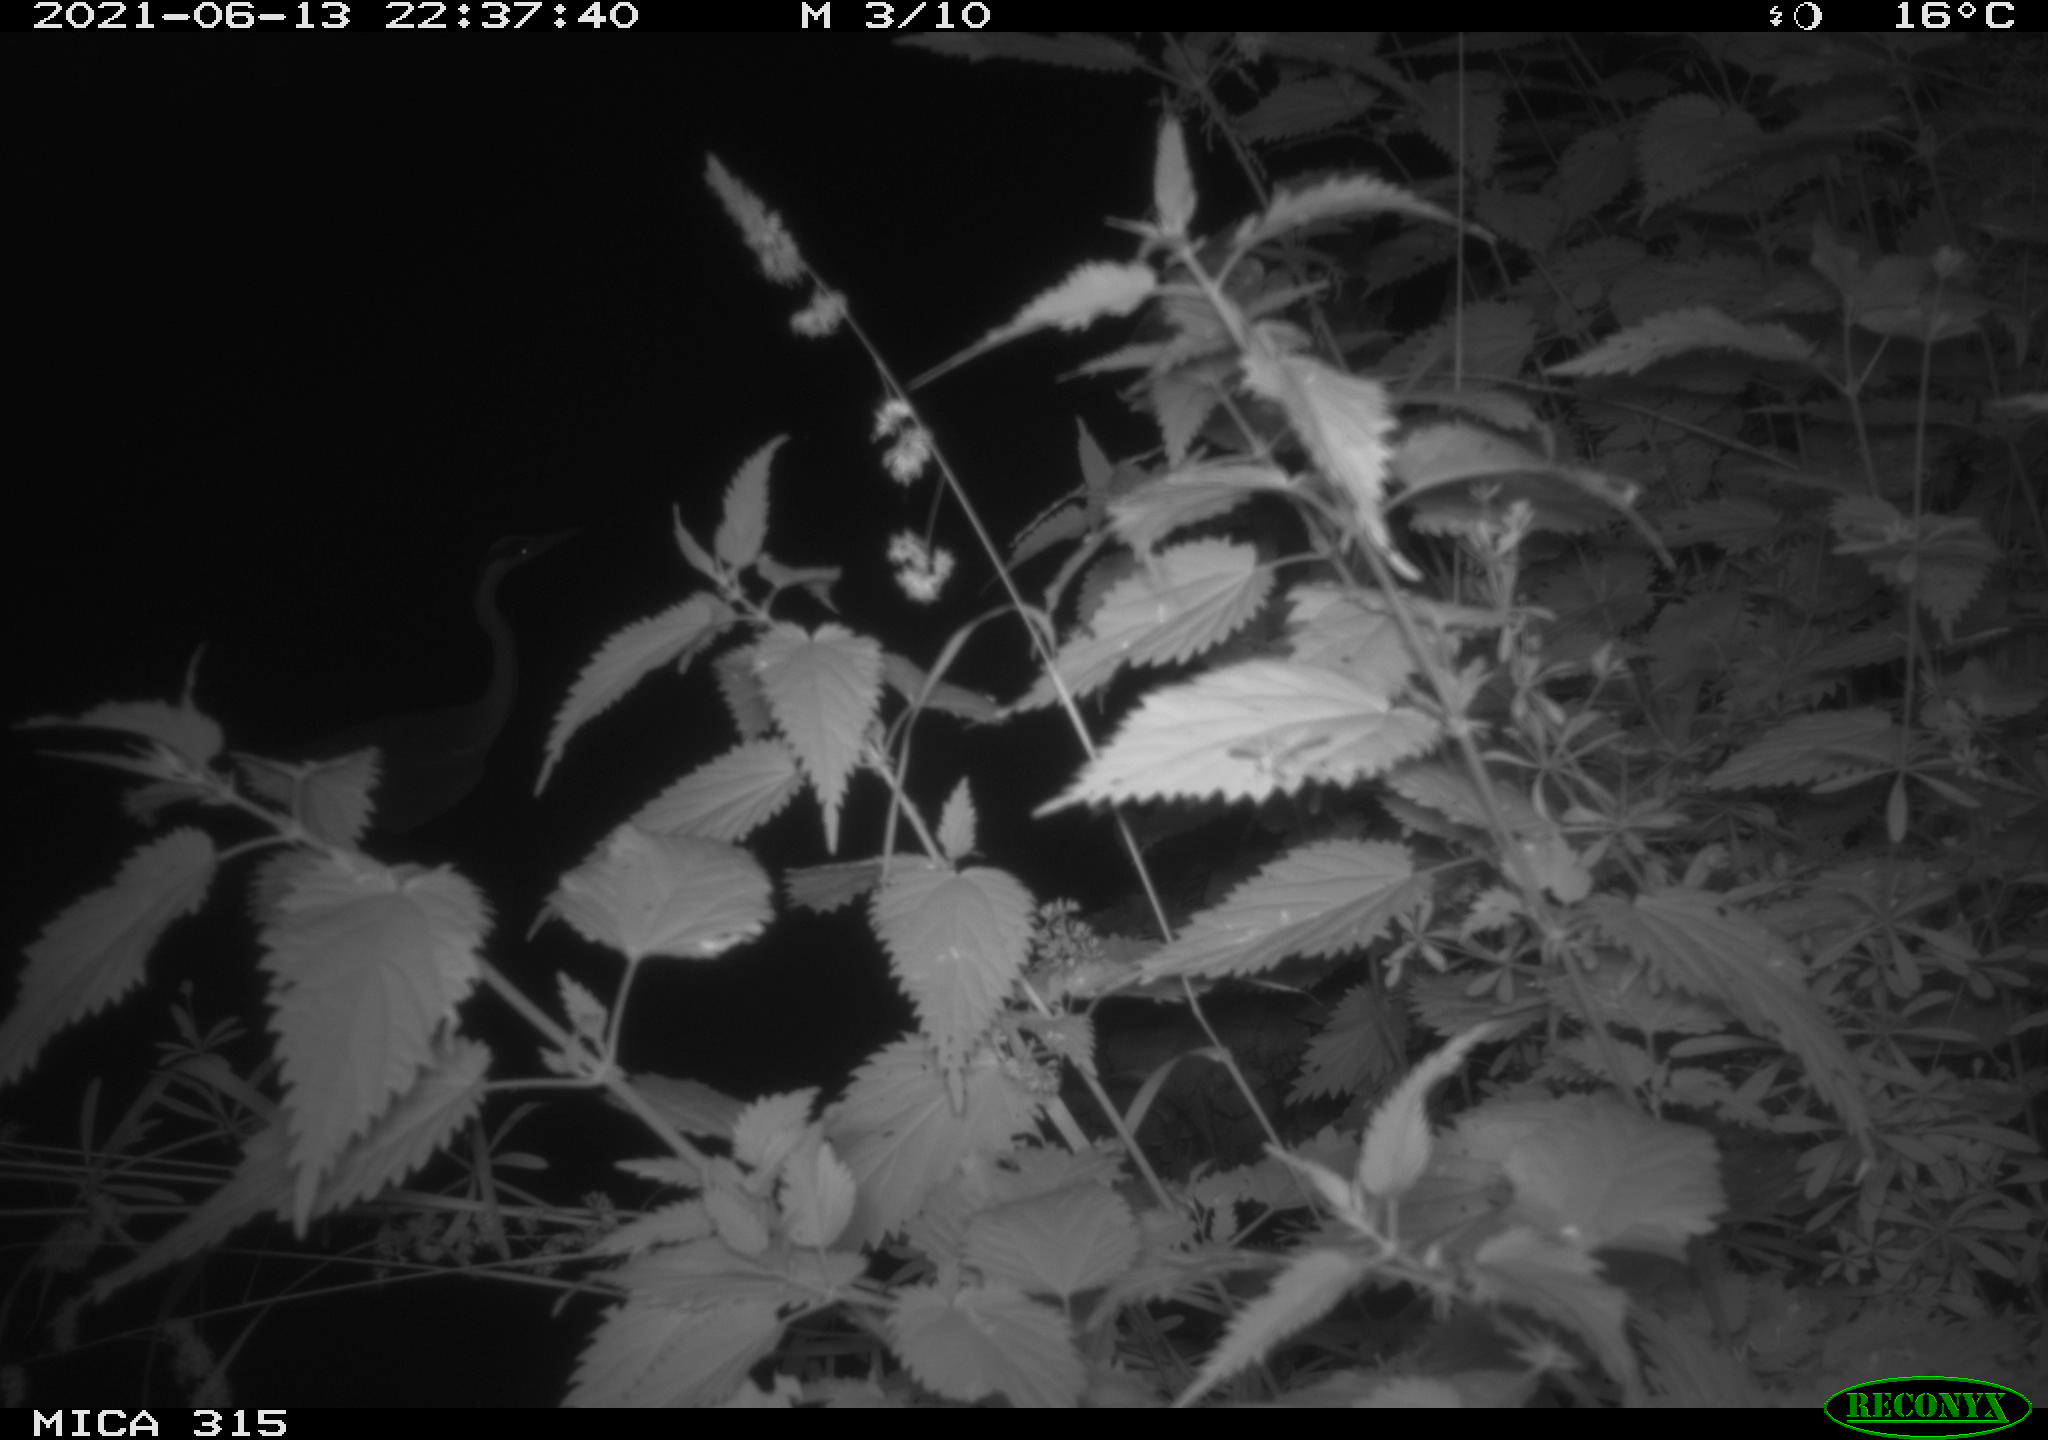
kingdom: Animalia
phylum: Chordata
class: Aves
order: Pelecaniformes
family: Ardeidae
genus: Ardea
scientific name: Ardea cinerea
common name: Grey heron
